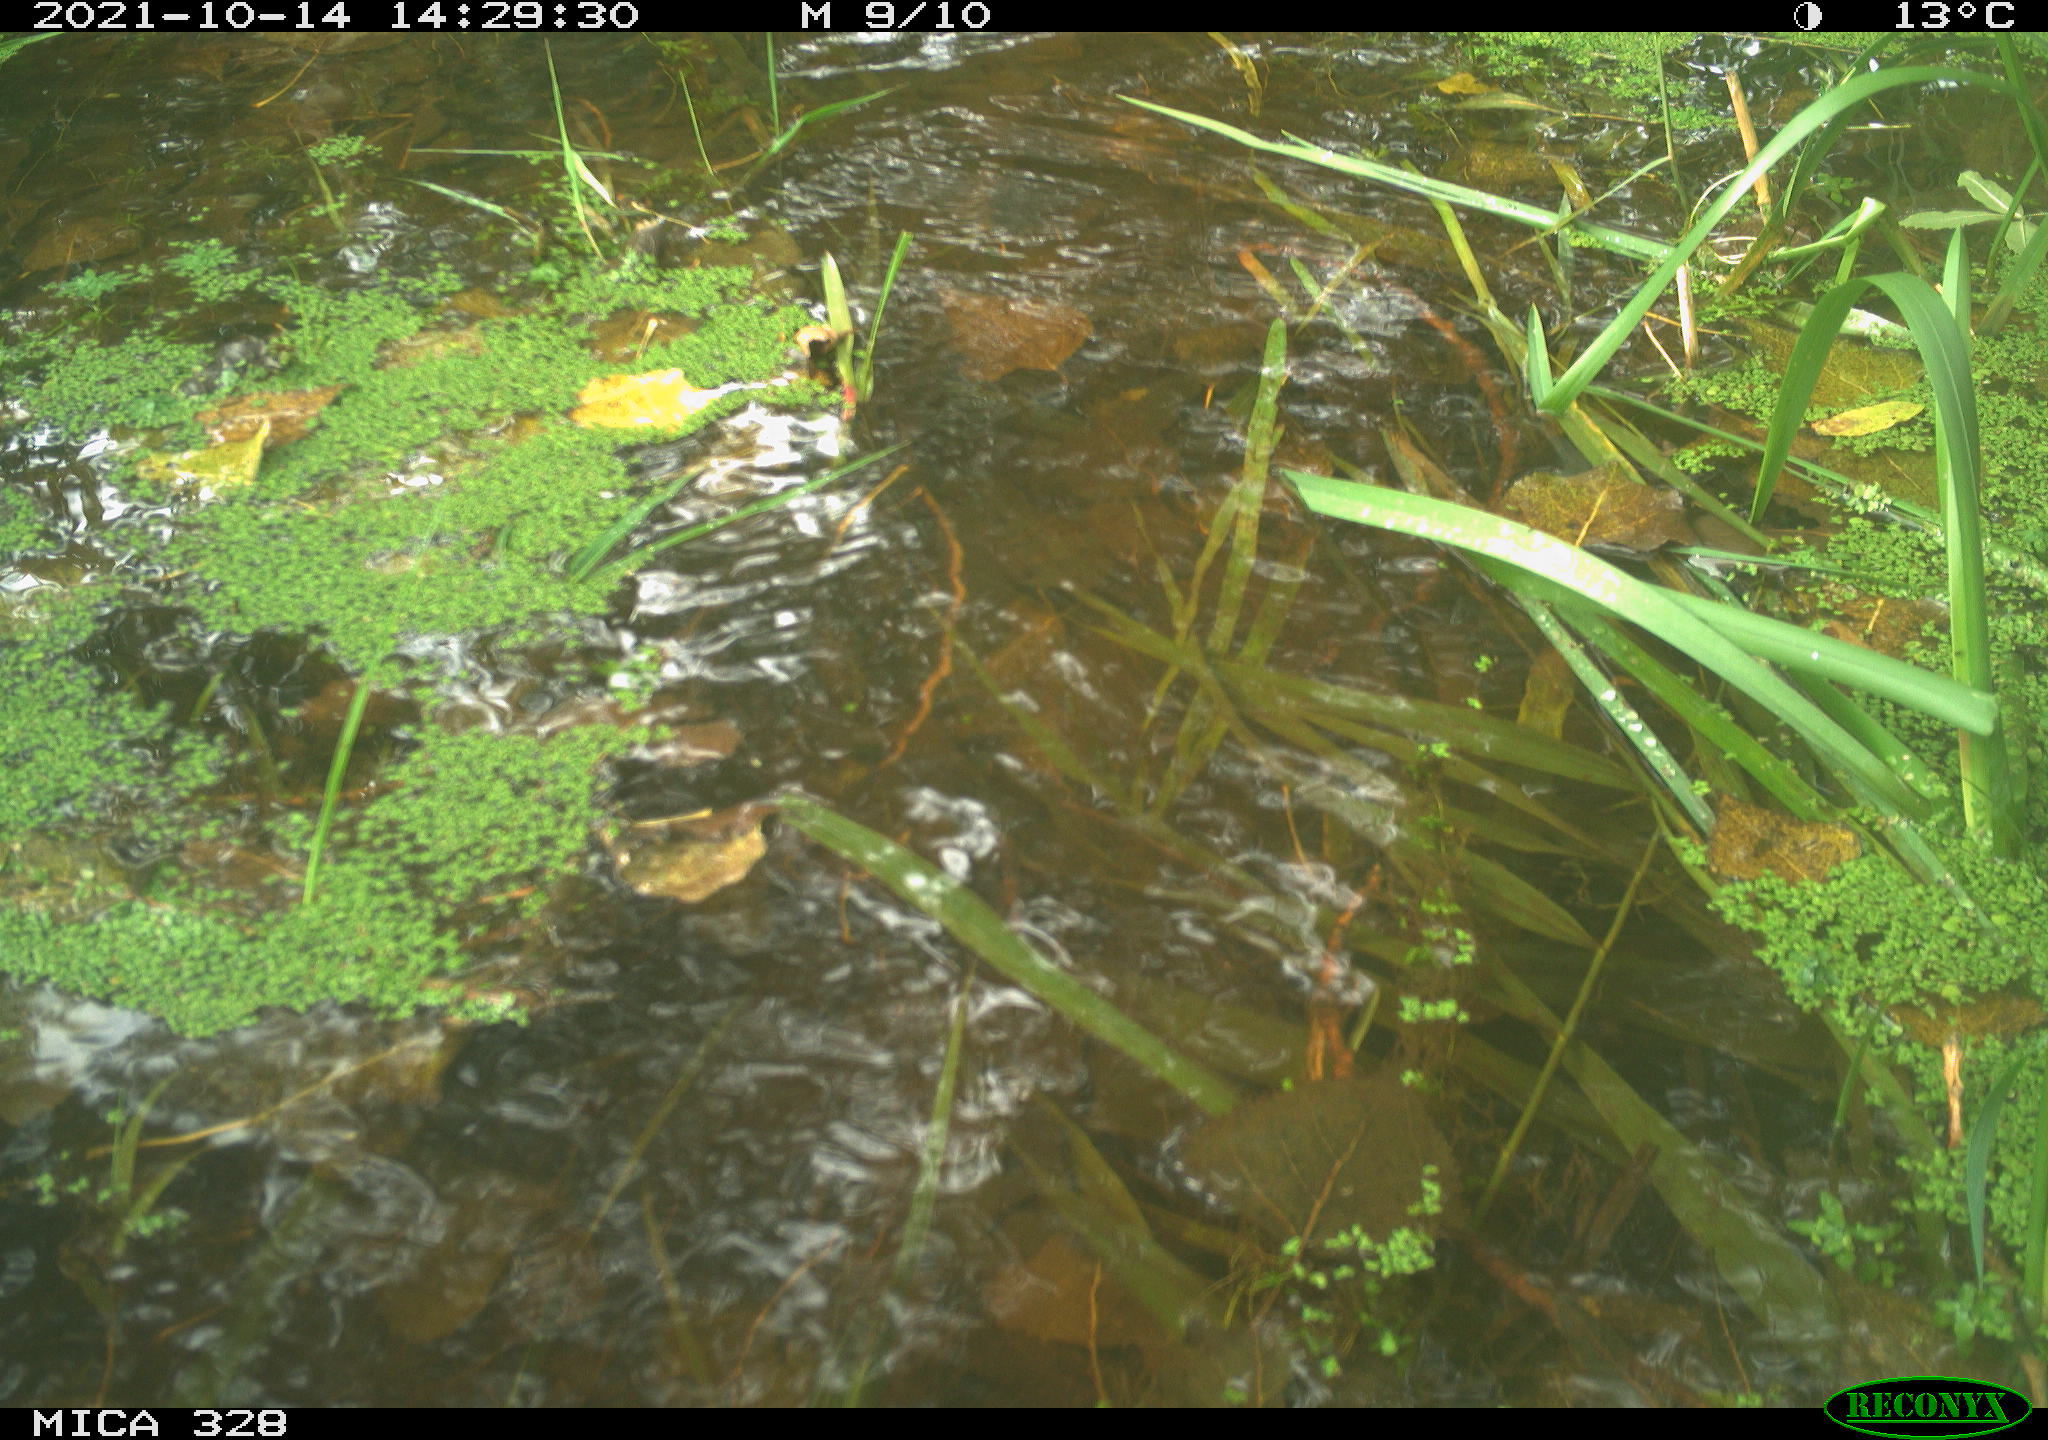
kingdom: Animalia
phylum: Chordata
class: Mammalia
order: Rodentia
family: Cricetidae
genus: Ondatra
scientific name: Ondatra zibethicus
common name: Muskrat
